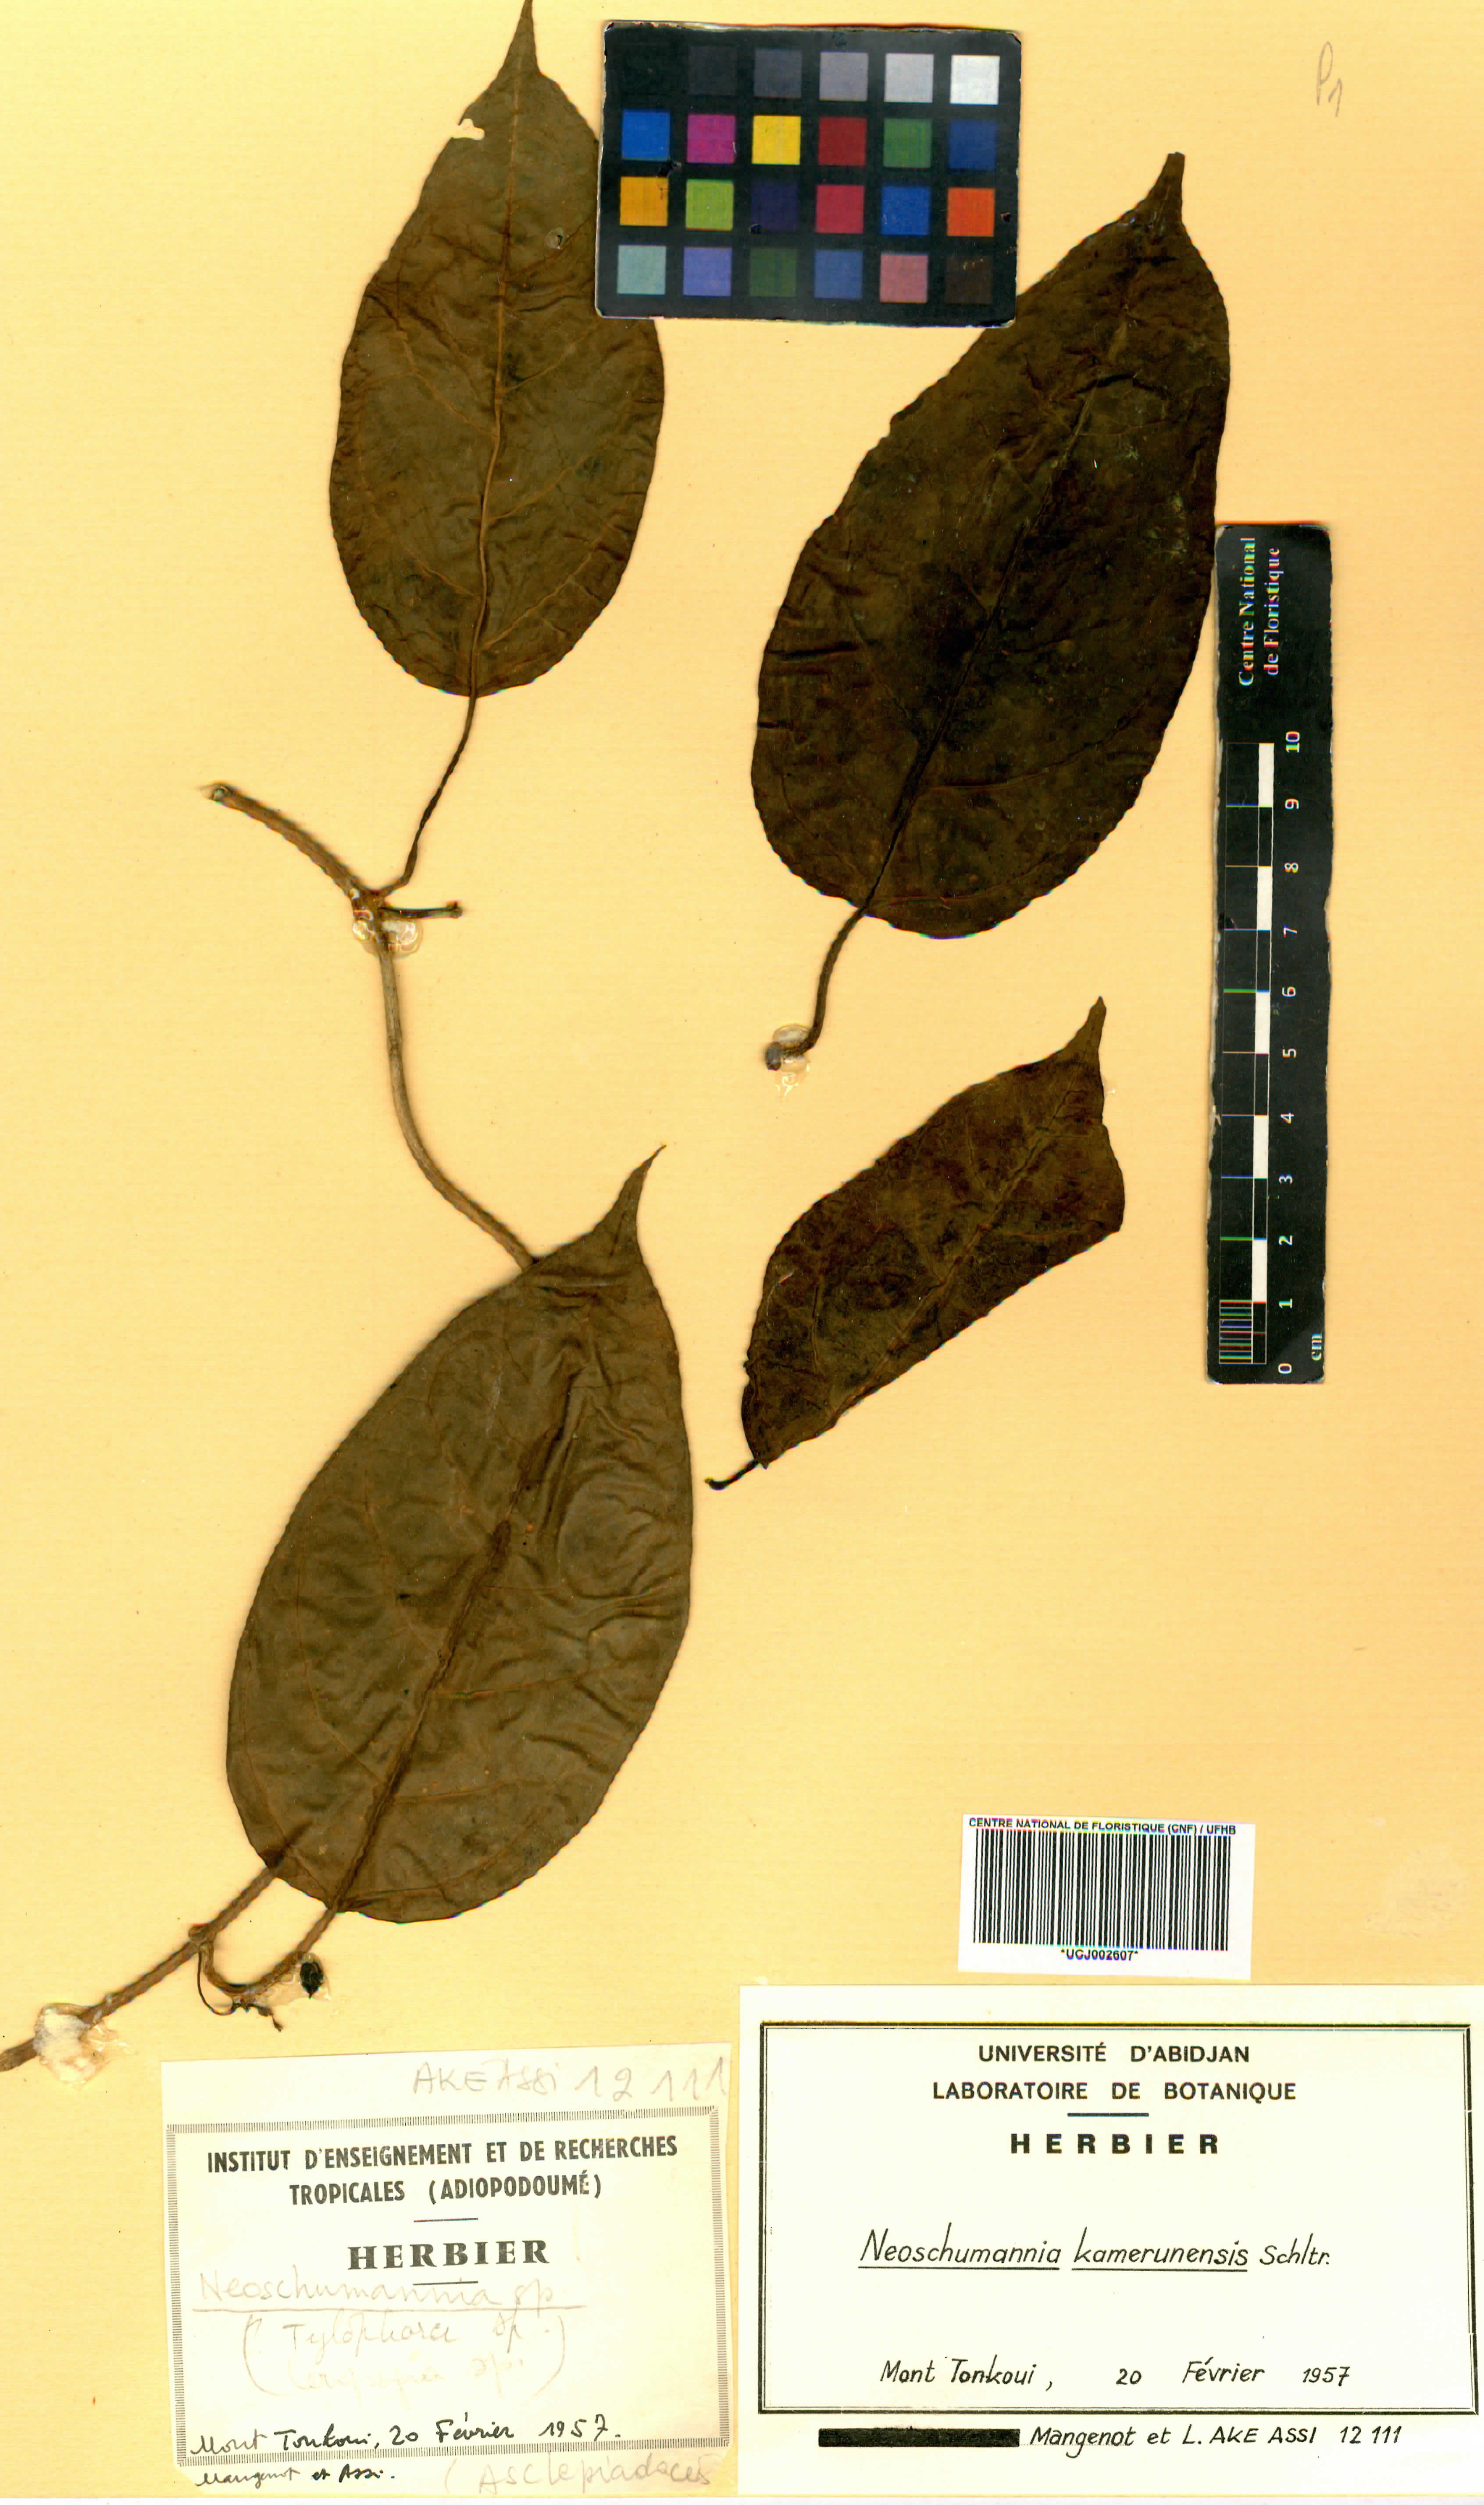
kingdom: Plantae
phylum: Tracheophyta
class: Magnoliopsida
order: Gentianales
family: Apocynaceae
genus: Neoschumannia
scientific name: Neoschumannia kamerunensis
